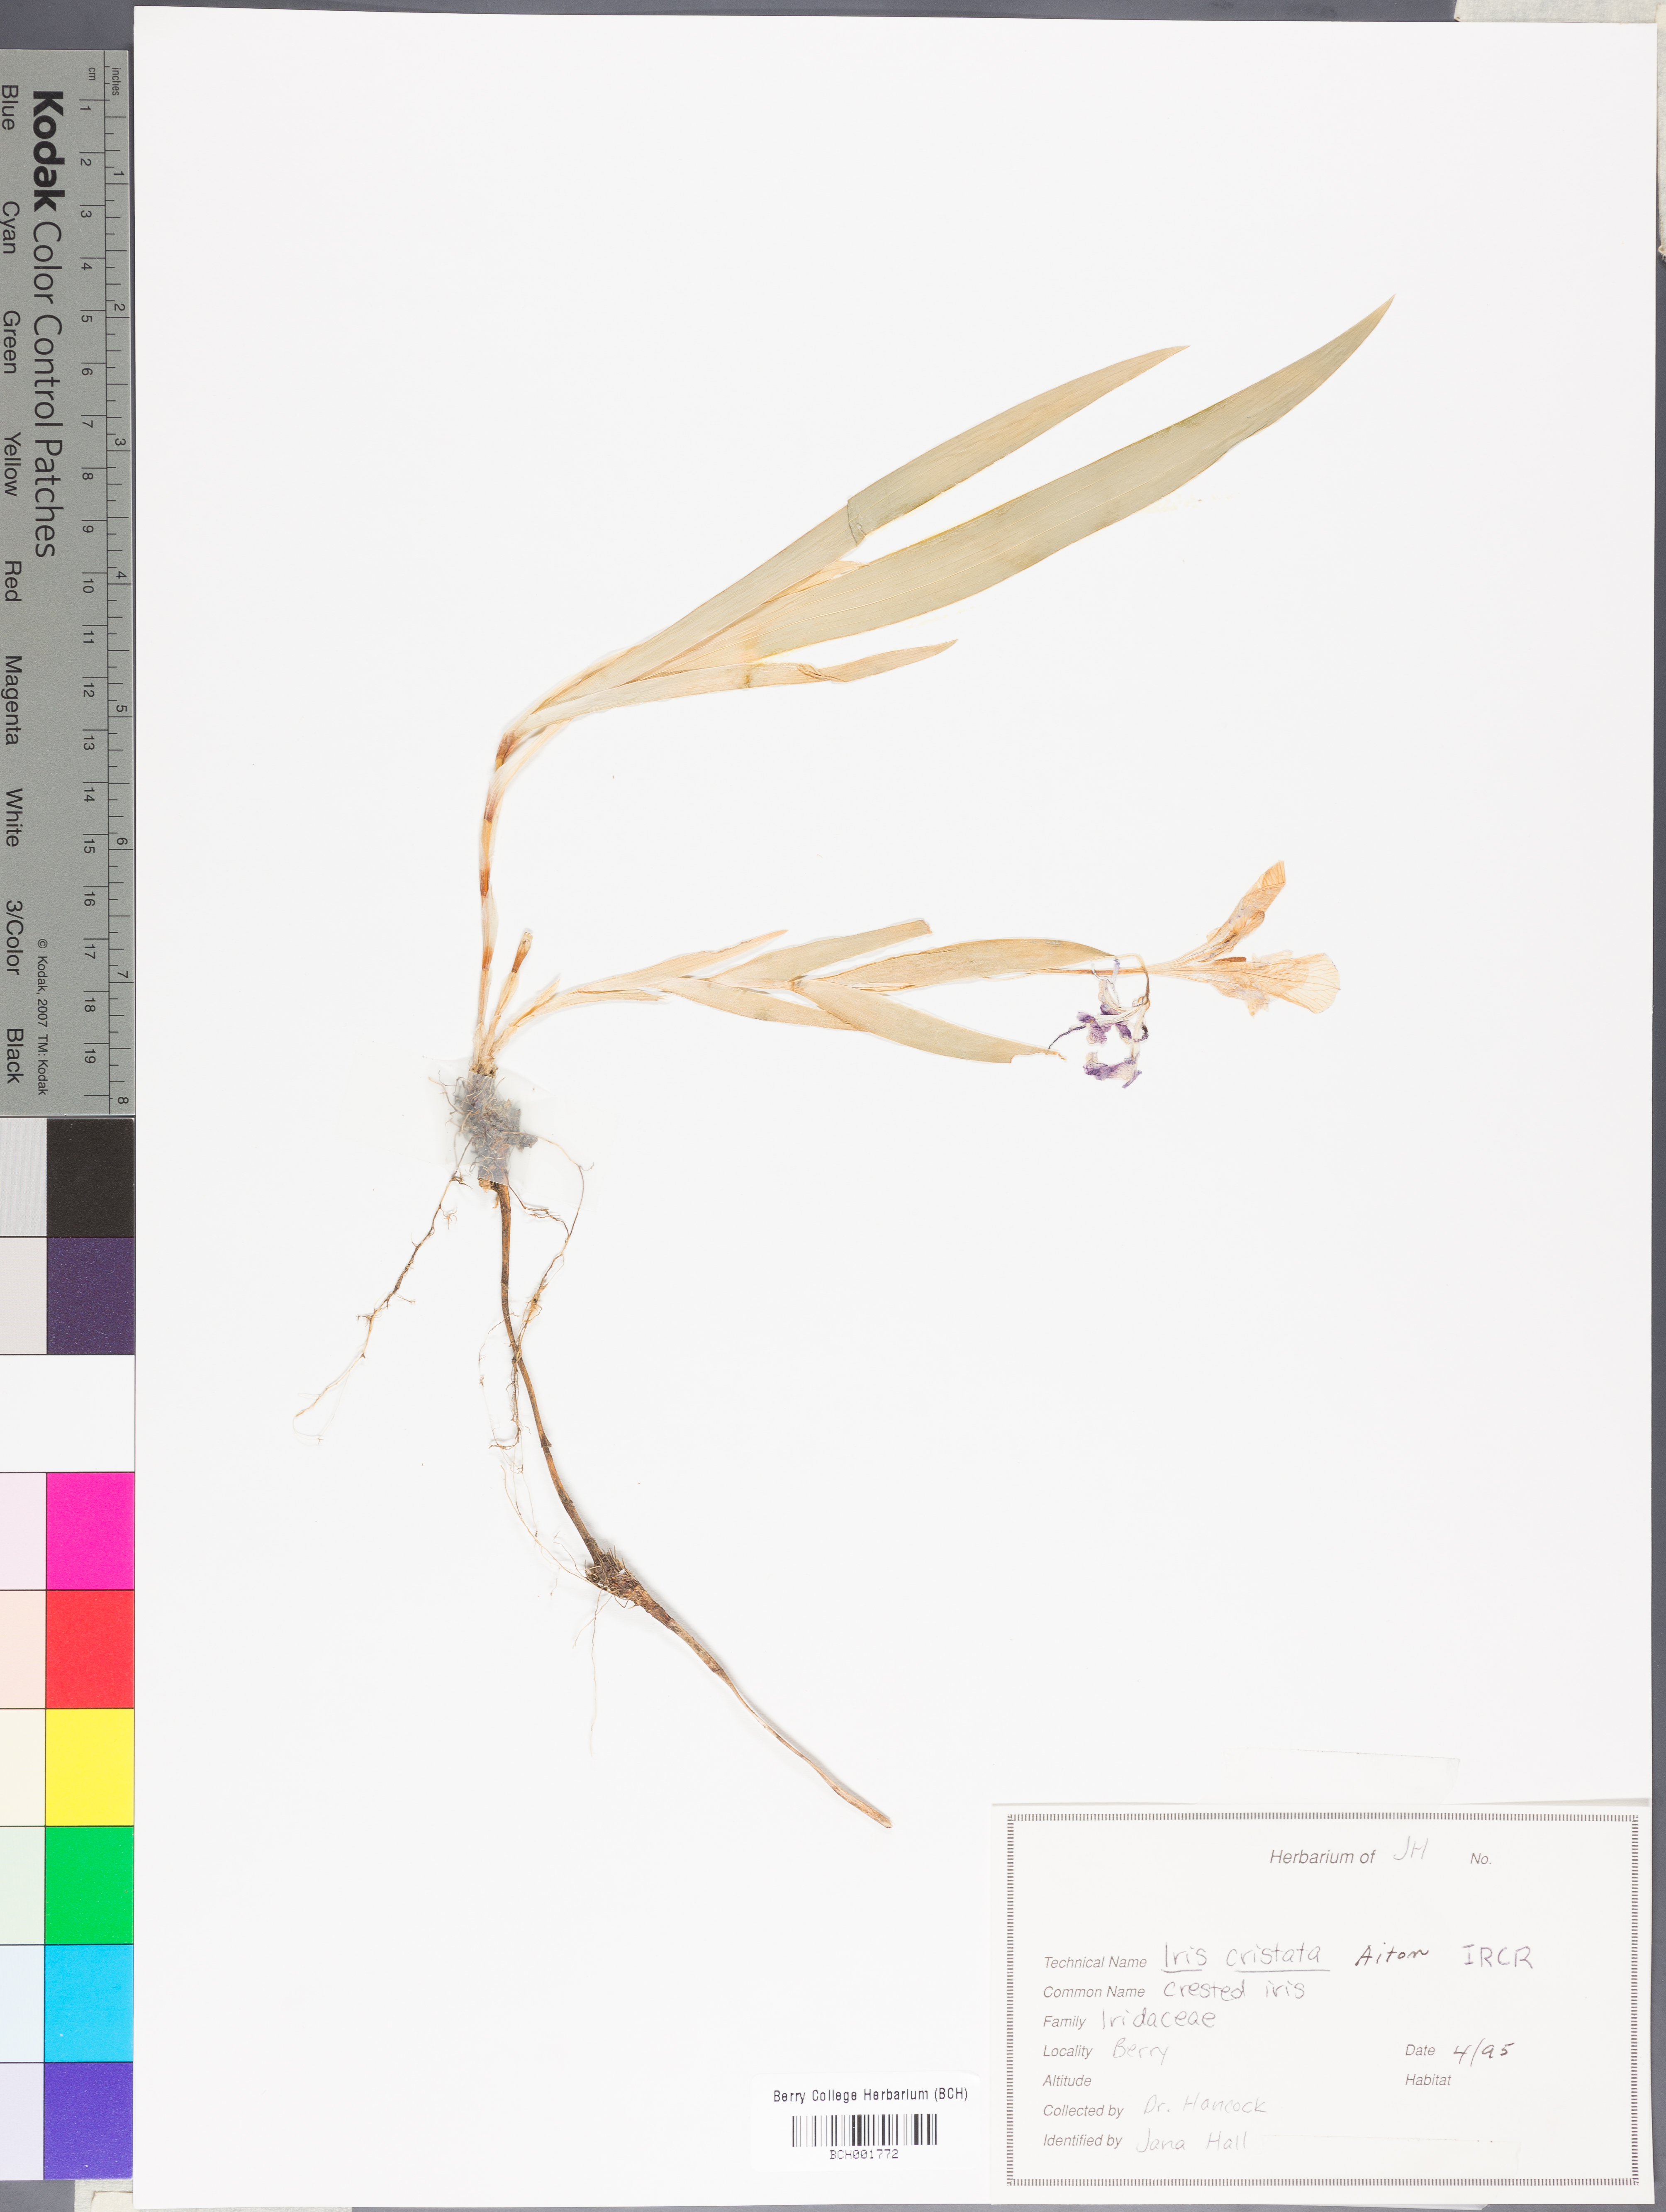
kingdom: Plantae
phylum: Tracheophyta
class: Liliopsida
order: Asparagales
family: Iridaceae
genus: Iris
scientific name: Iris cristata
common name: Crested iris
